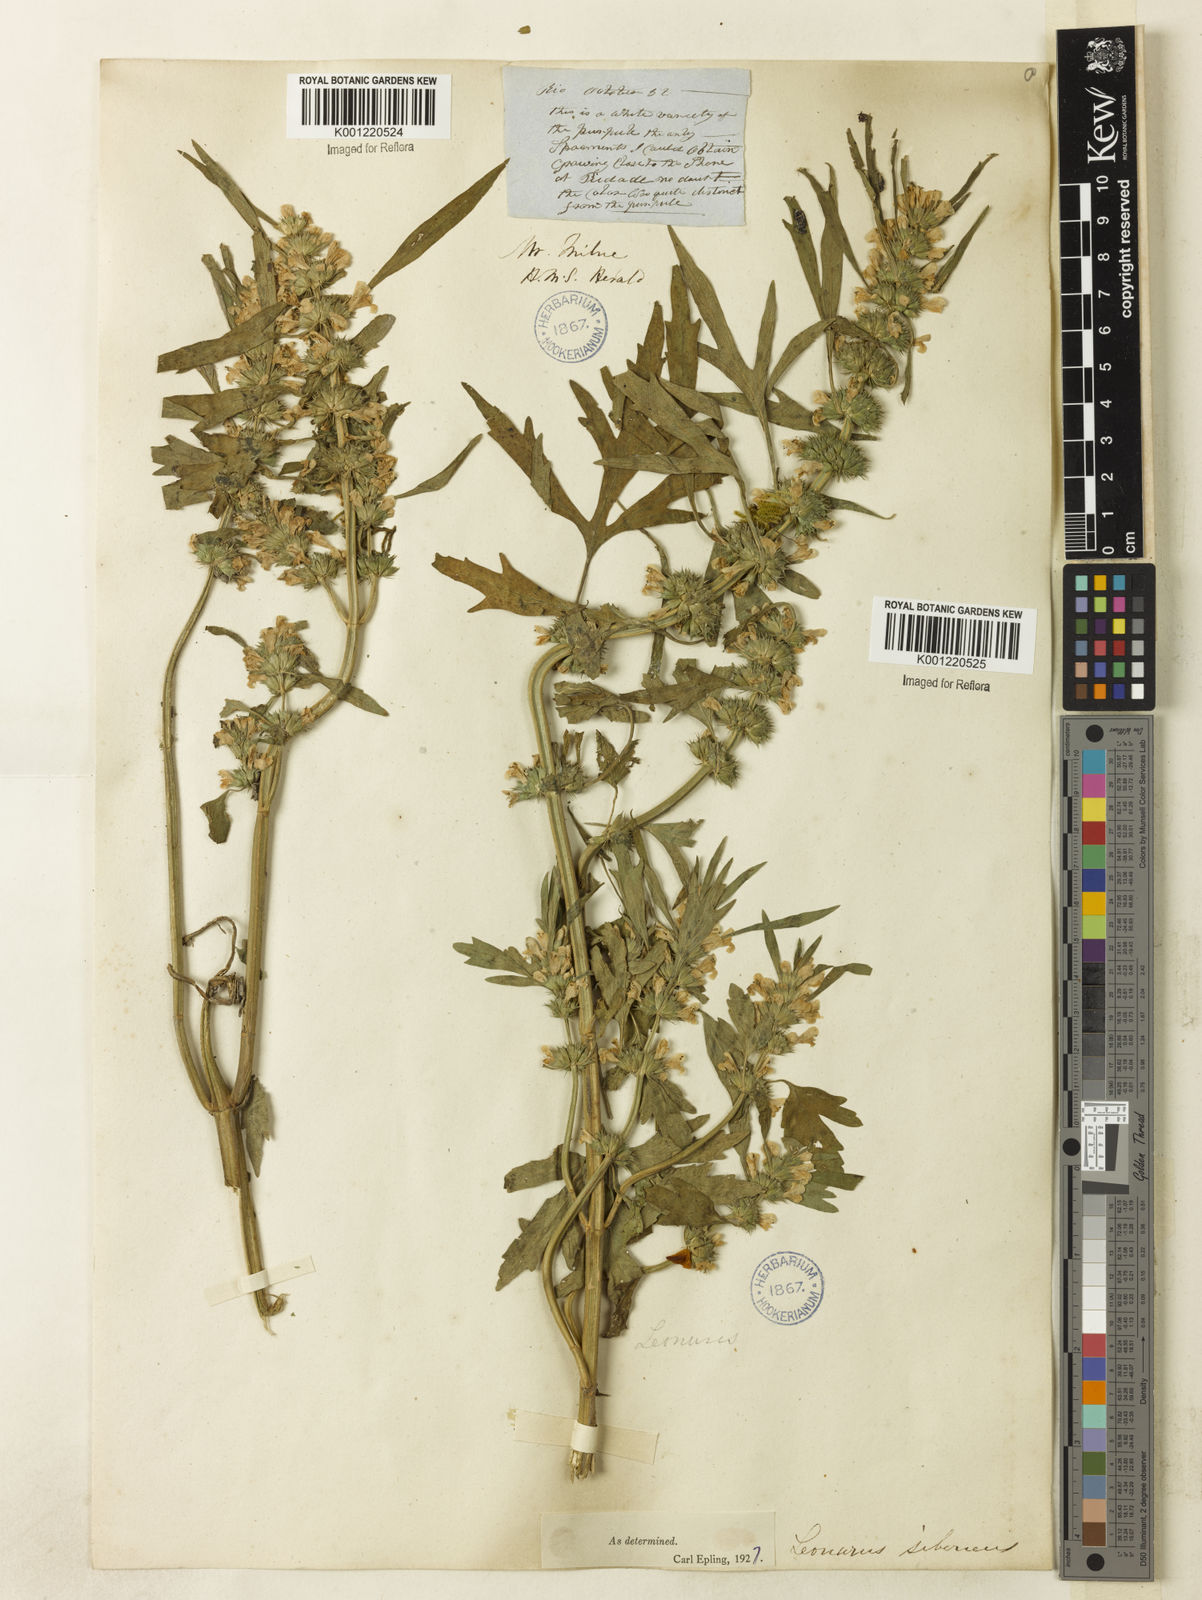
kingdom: Plantae
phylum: Tracheophyta
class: Magnoliopsida
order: Lamiales
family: Lamiaceae
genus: Leonurus
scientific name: Leonurus japonicus
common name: Honeyweed
